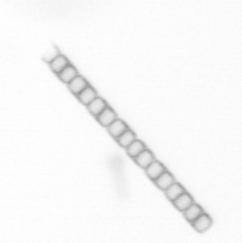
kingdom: Chromista
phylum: Ochrophyta
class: Bacillariophyceae
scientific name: Bacillariophyceae
